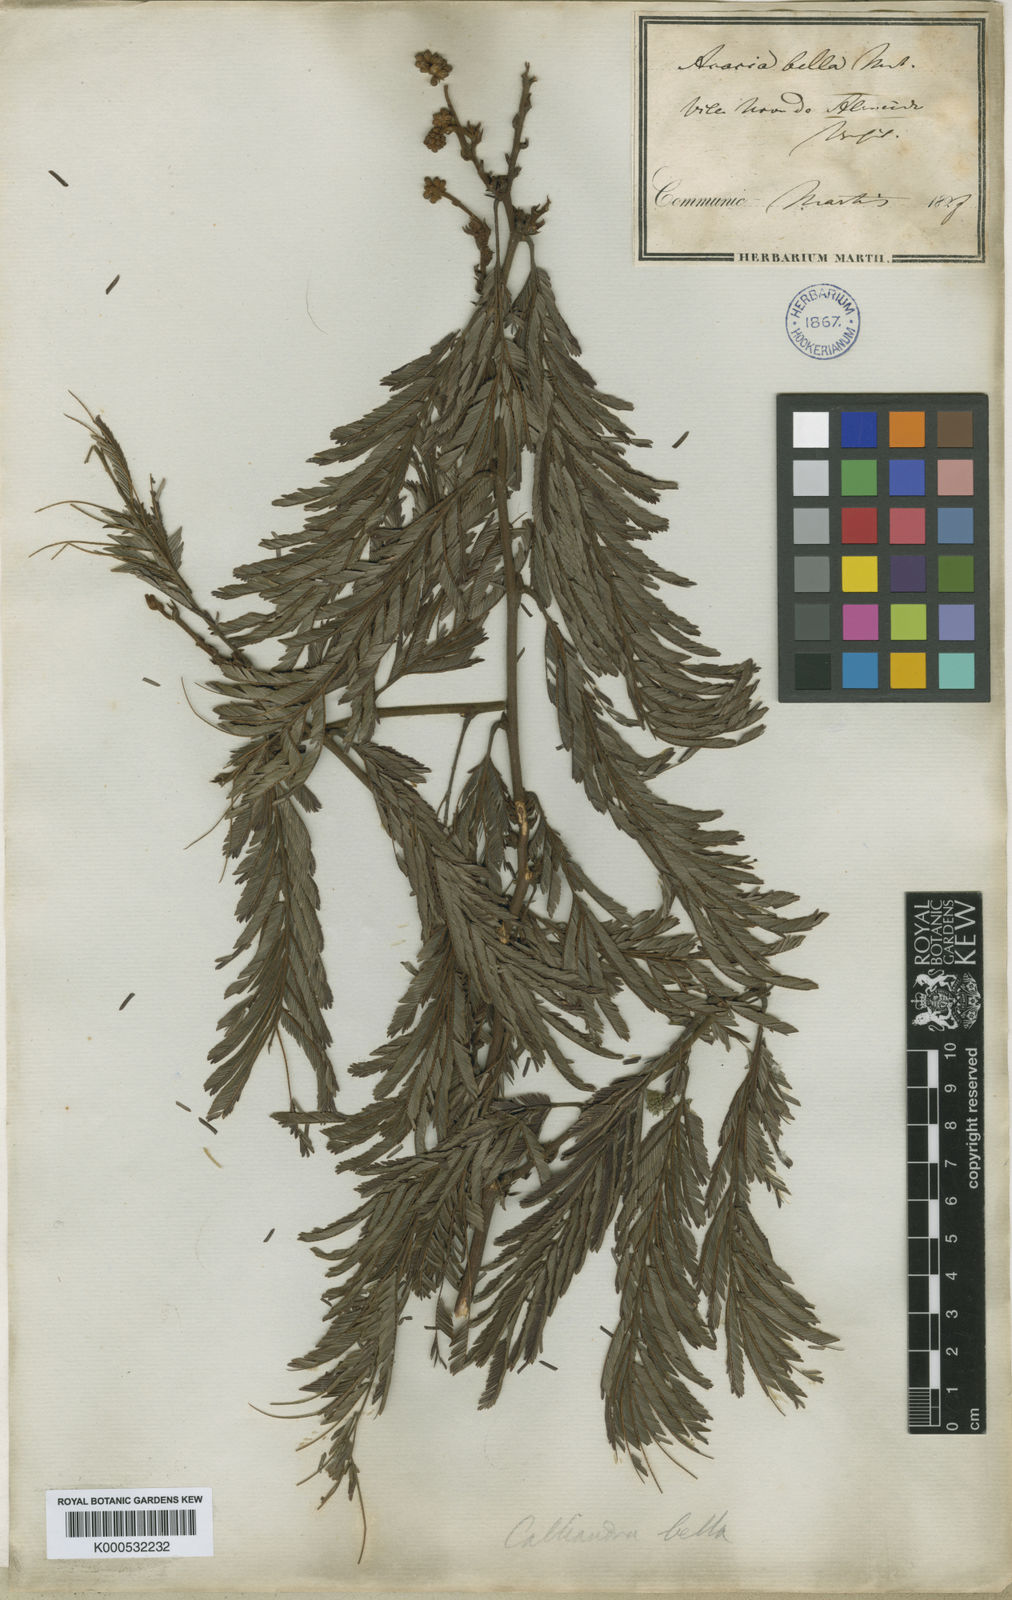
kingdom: Plantae
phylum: Tracheophyta
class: Magnoliopsida
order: Fabales
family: Fabaceae
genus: Calliandra
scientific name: Calliandra bella
